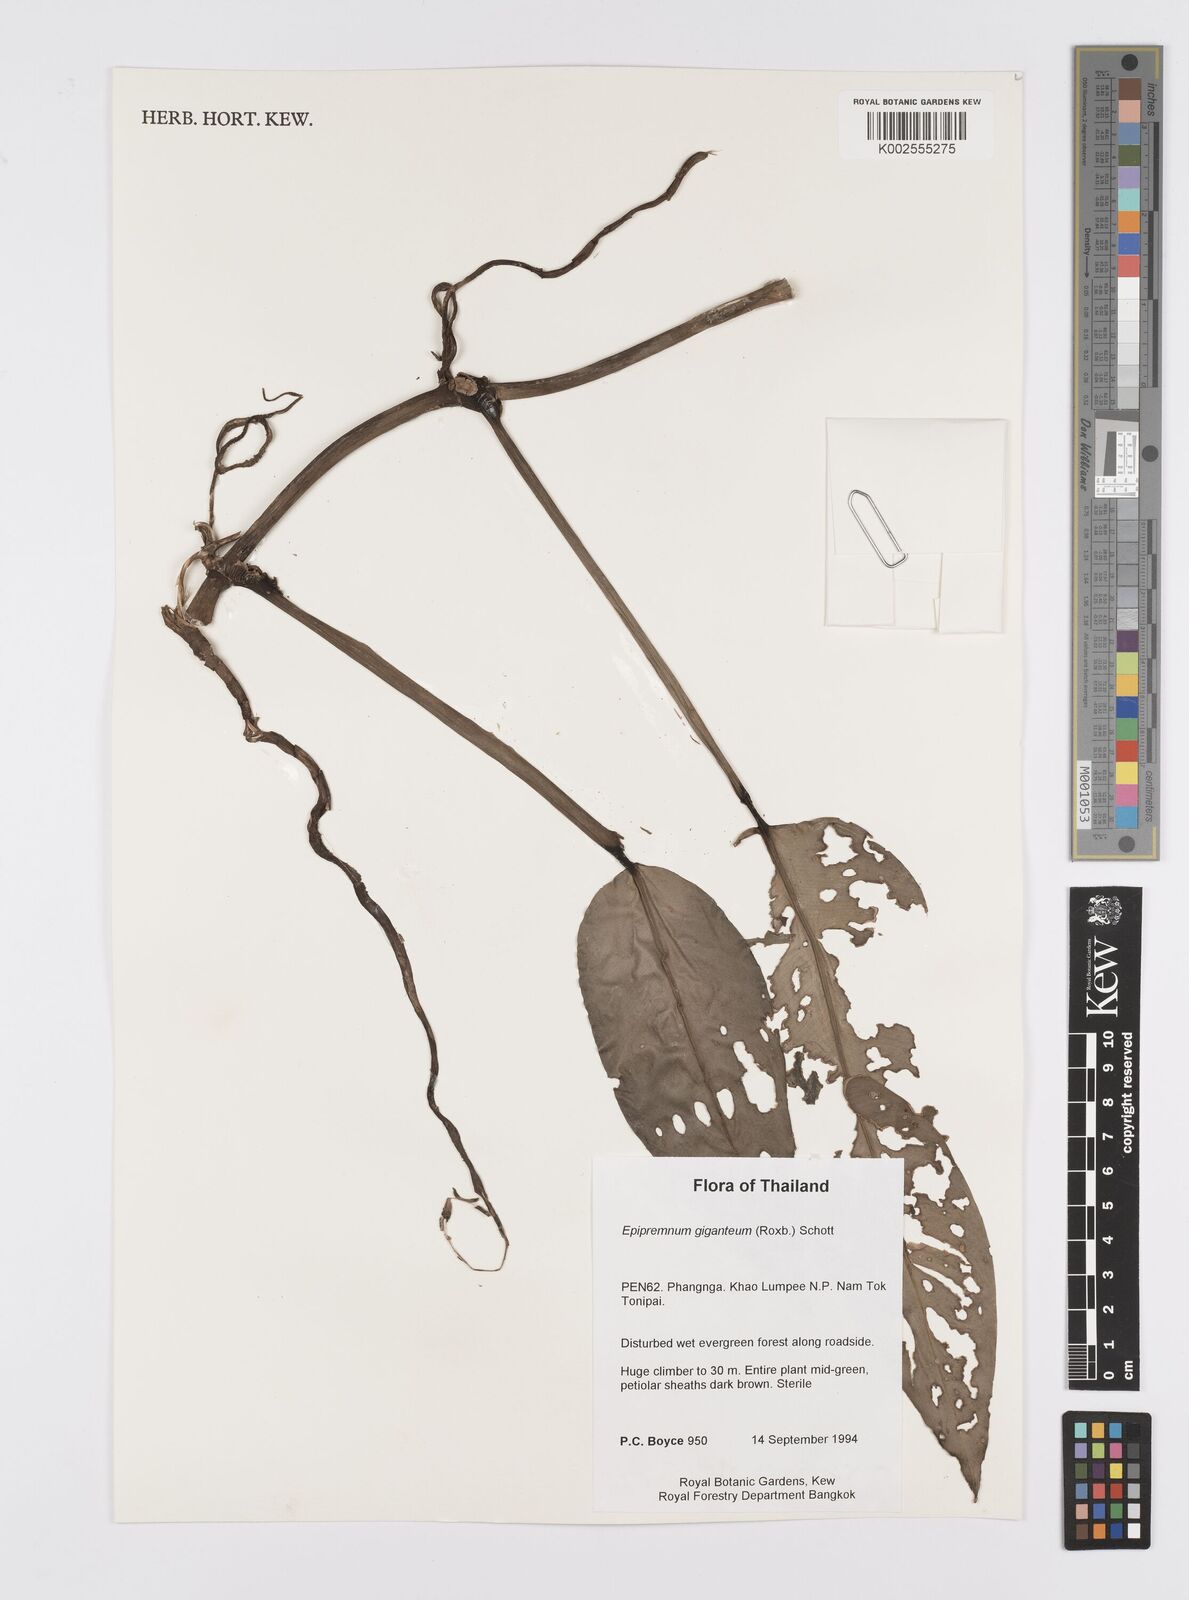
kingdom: Plantae
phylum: Tracheophyta
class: Liliopsida
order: Alismatales
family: Araceae
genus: Epipremnum
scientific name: Epipremnum giganteum
